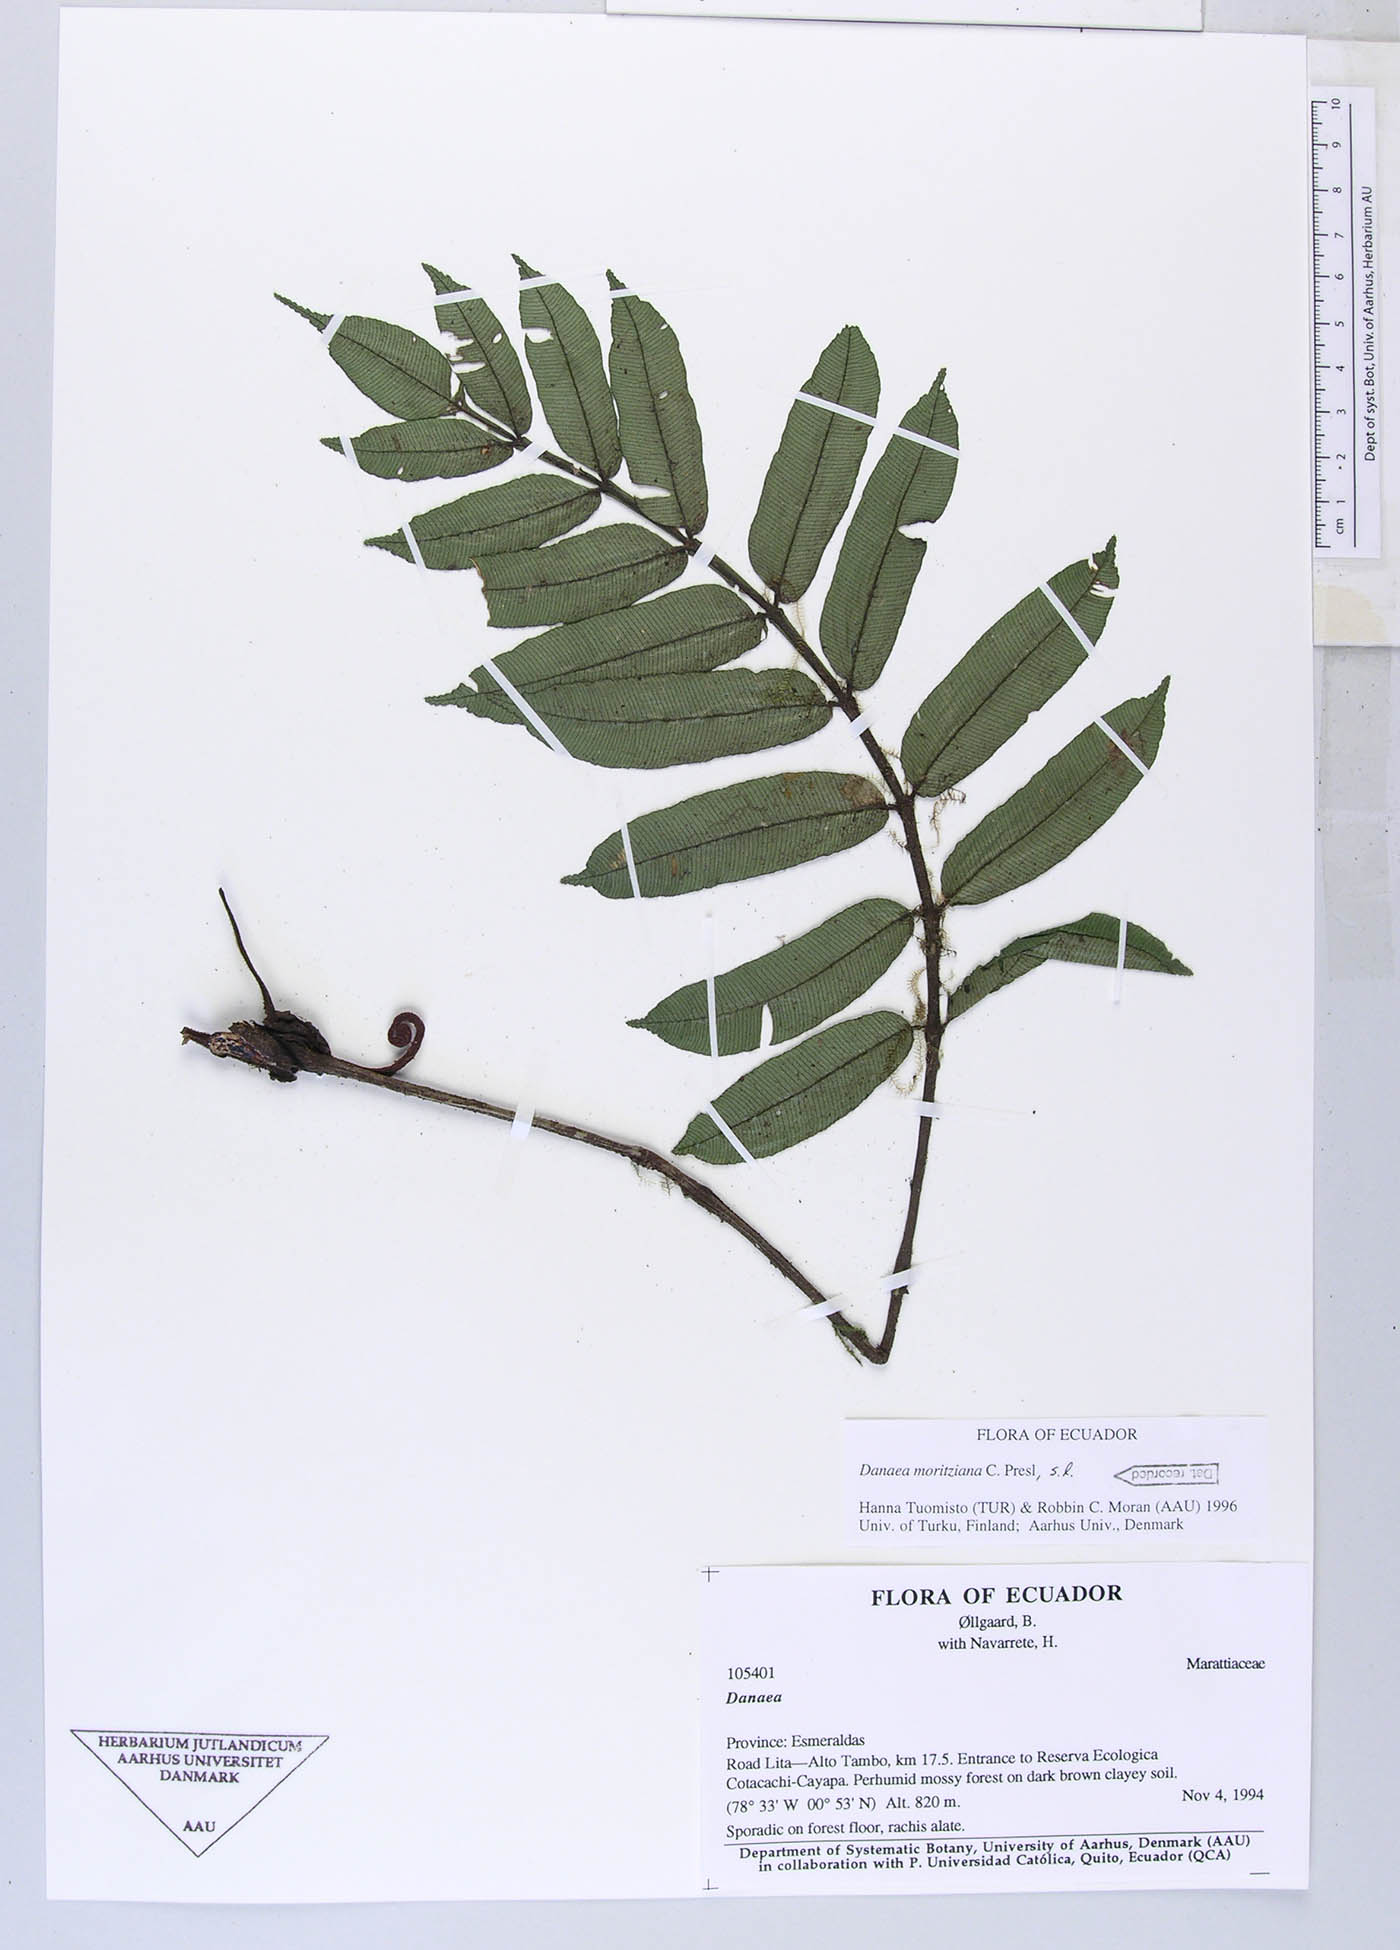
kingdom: Plantae
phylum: Tracheophyta
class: Polypodiopsida
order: Marattiales
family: Marattiaceae
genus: Danaea
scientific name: Danaea
